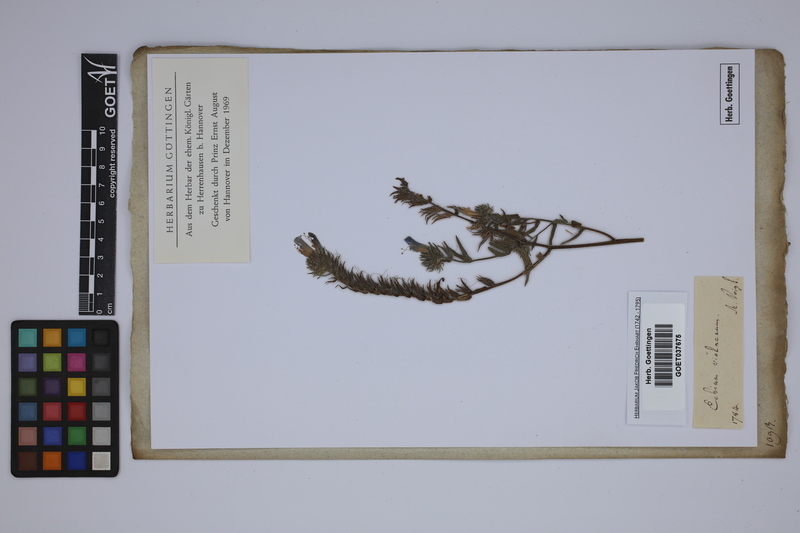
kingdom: Plantae
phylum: Tracheophyta
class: Magnoliopsida
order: Boraginales
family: Boraginaceae
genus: Echium
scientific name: Echium plantagineum
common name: Purple viper's-bugloss
